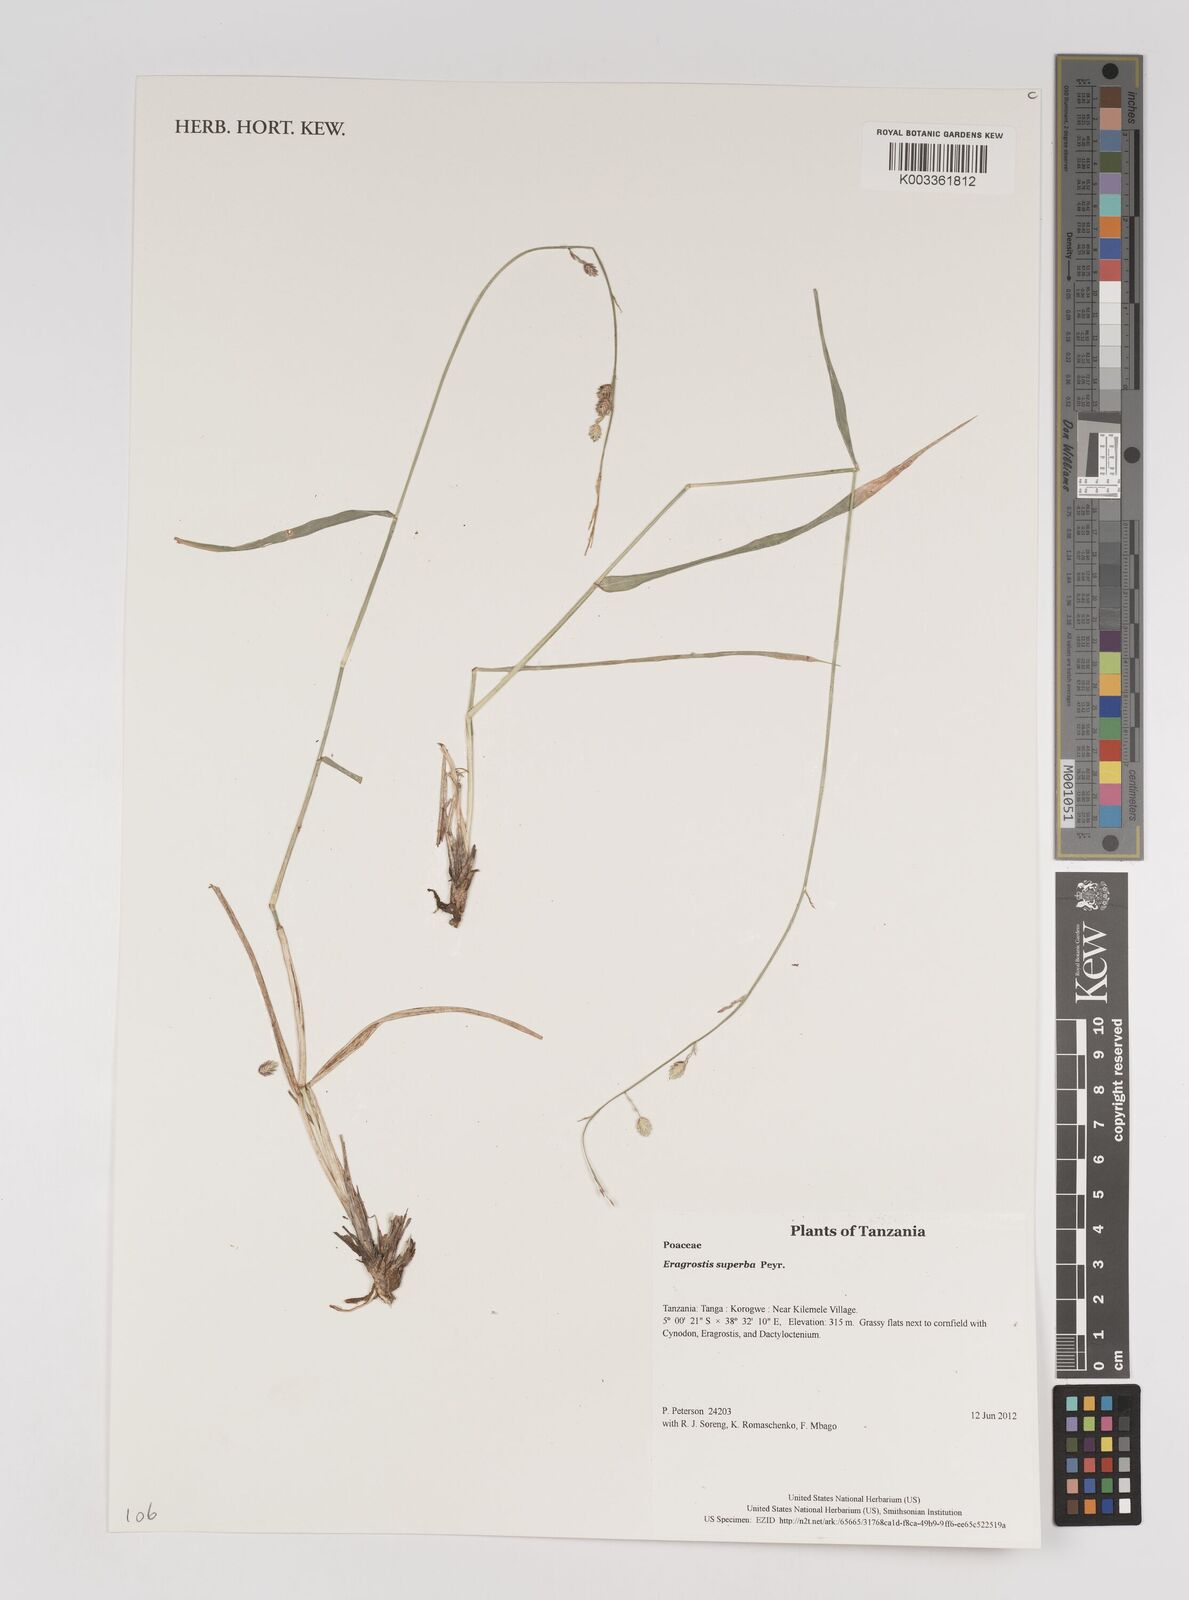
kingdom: Plantae
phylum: Tracheophyta
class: Liliopsida
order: Poales
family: Poaceae
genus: Eragrostis
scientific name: Eragrostis superba
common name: Wilman lovegrass
